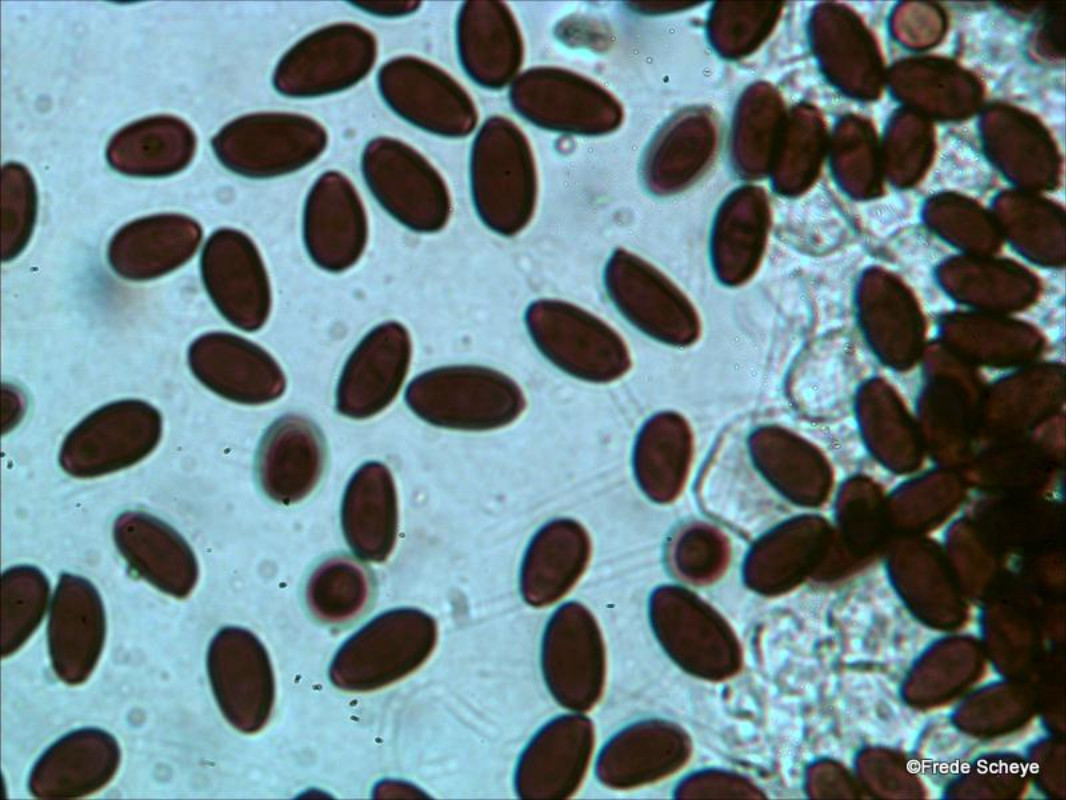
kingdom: Fungi
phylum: Basidiomycota
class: Agaricomycetes
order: Agaricales
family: Psathyrellaceae
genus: Parasola
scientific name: Parasola
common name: hjulhat
